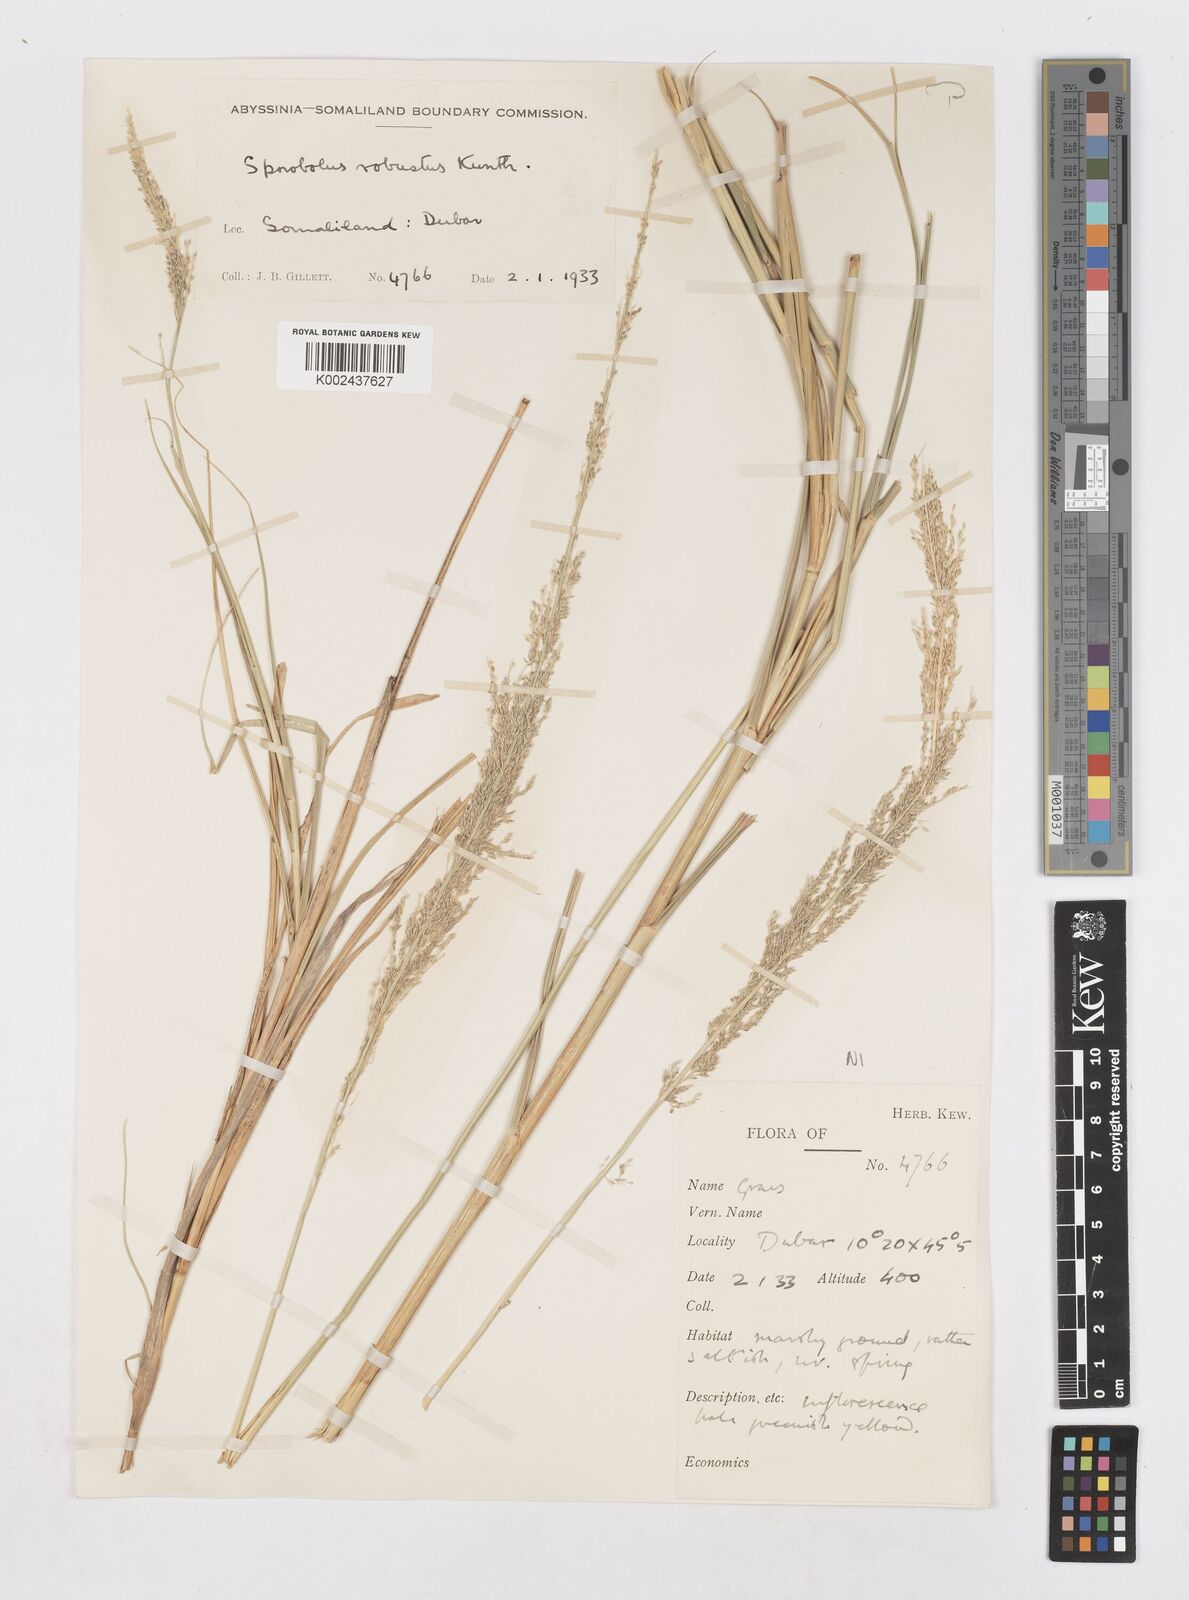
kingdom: Plantae
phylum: Tracheophyta
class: Liliopsida
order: Poales
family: Poaceae
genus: Sporobolus
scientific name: Sporobolus consimilis
